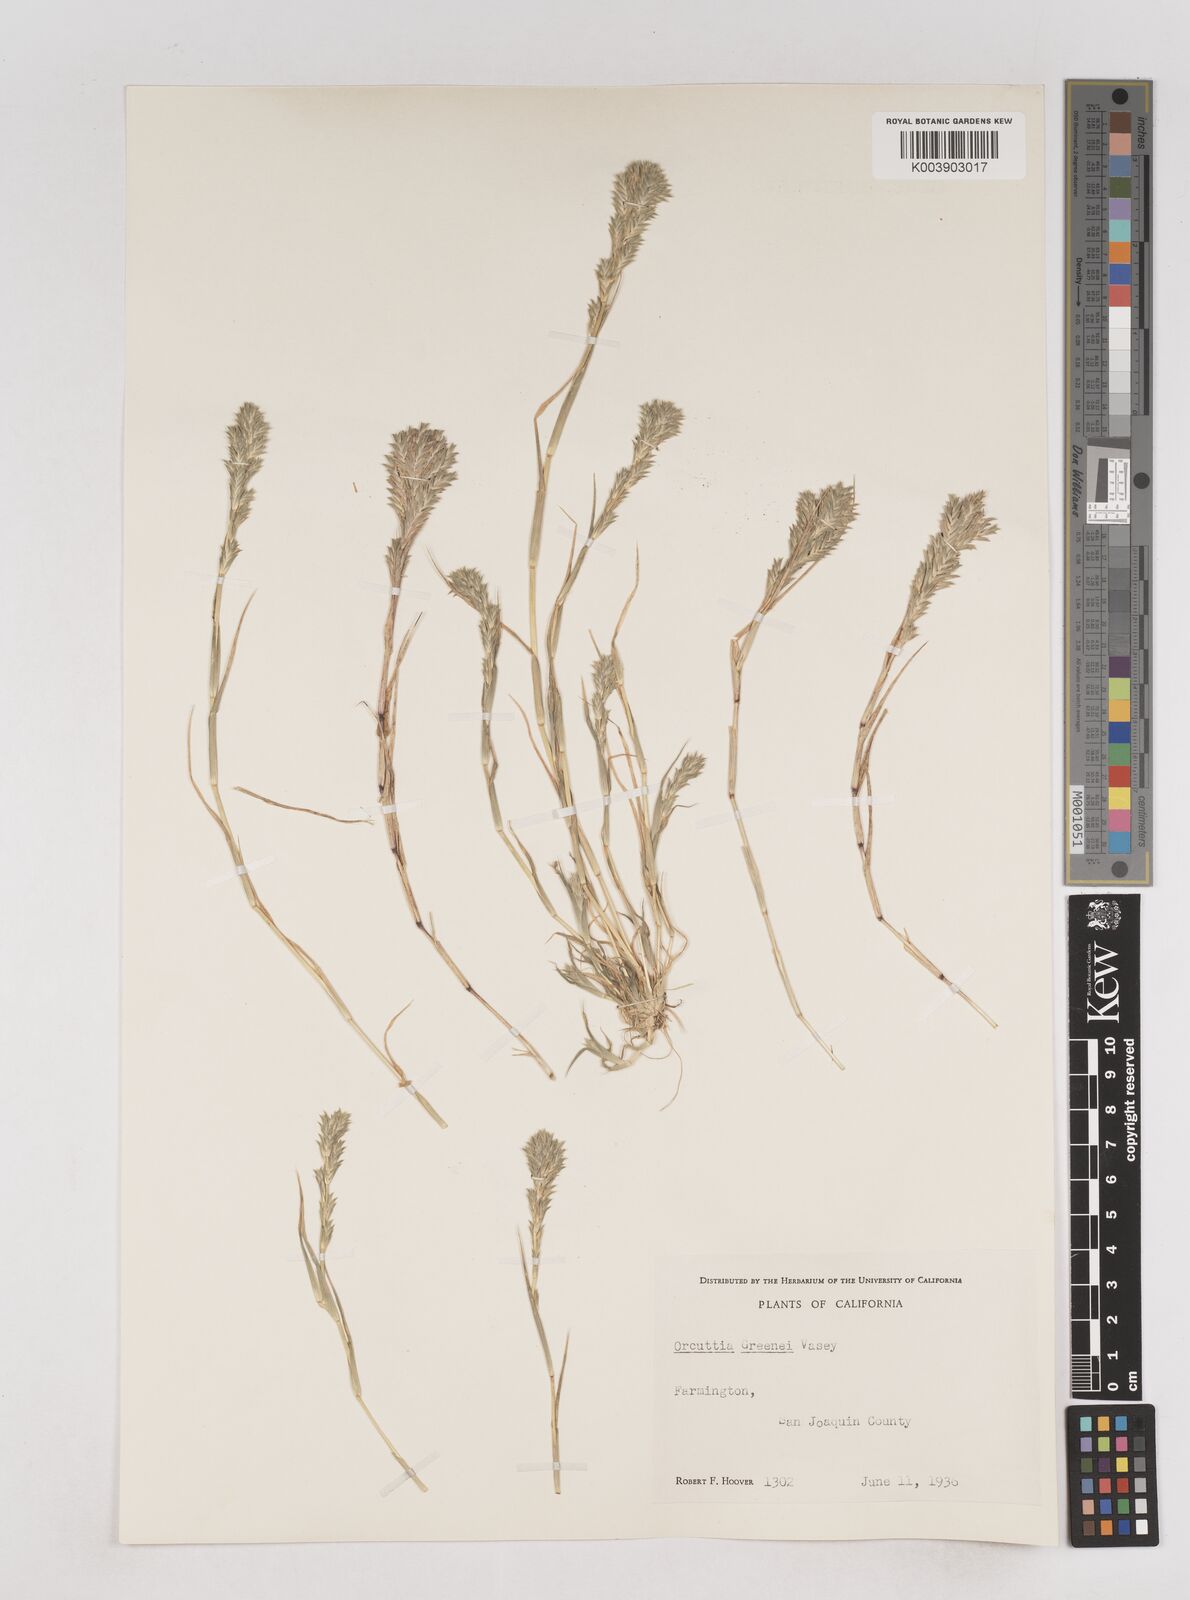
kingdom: Plantae
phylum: Tracheophyta
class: Liliopsida
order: Poales
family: Poaceae
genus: Tuctoria
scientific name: Tuctoria greenei
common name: Awnless spiral grass
